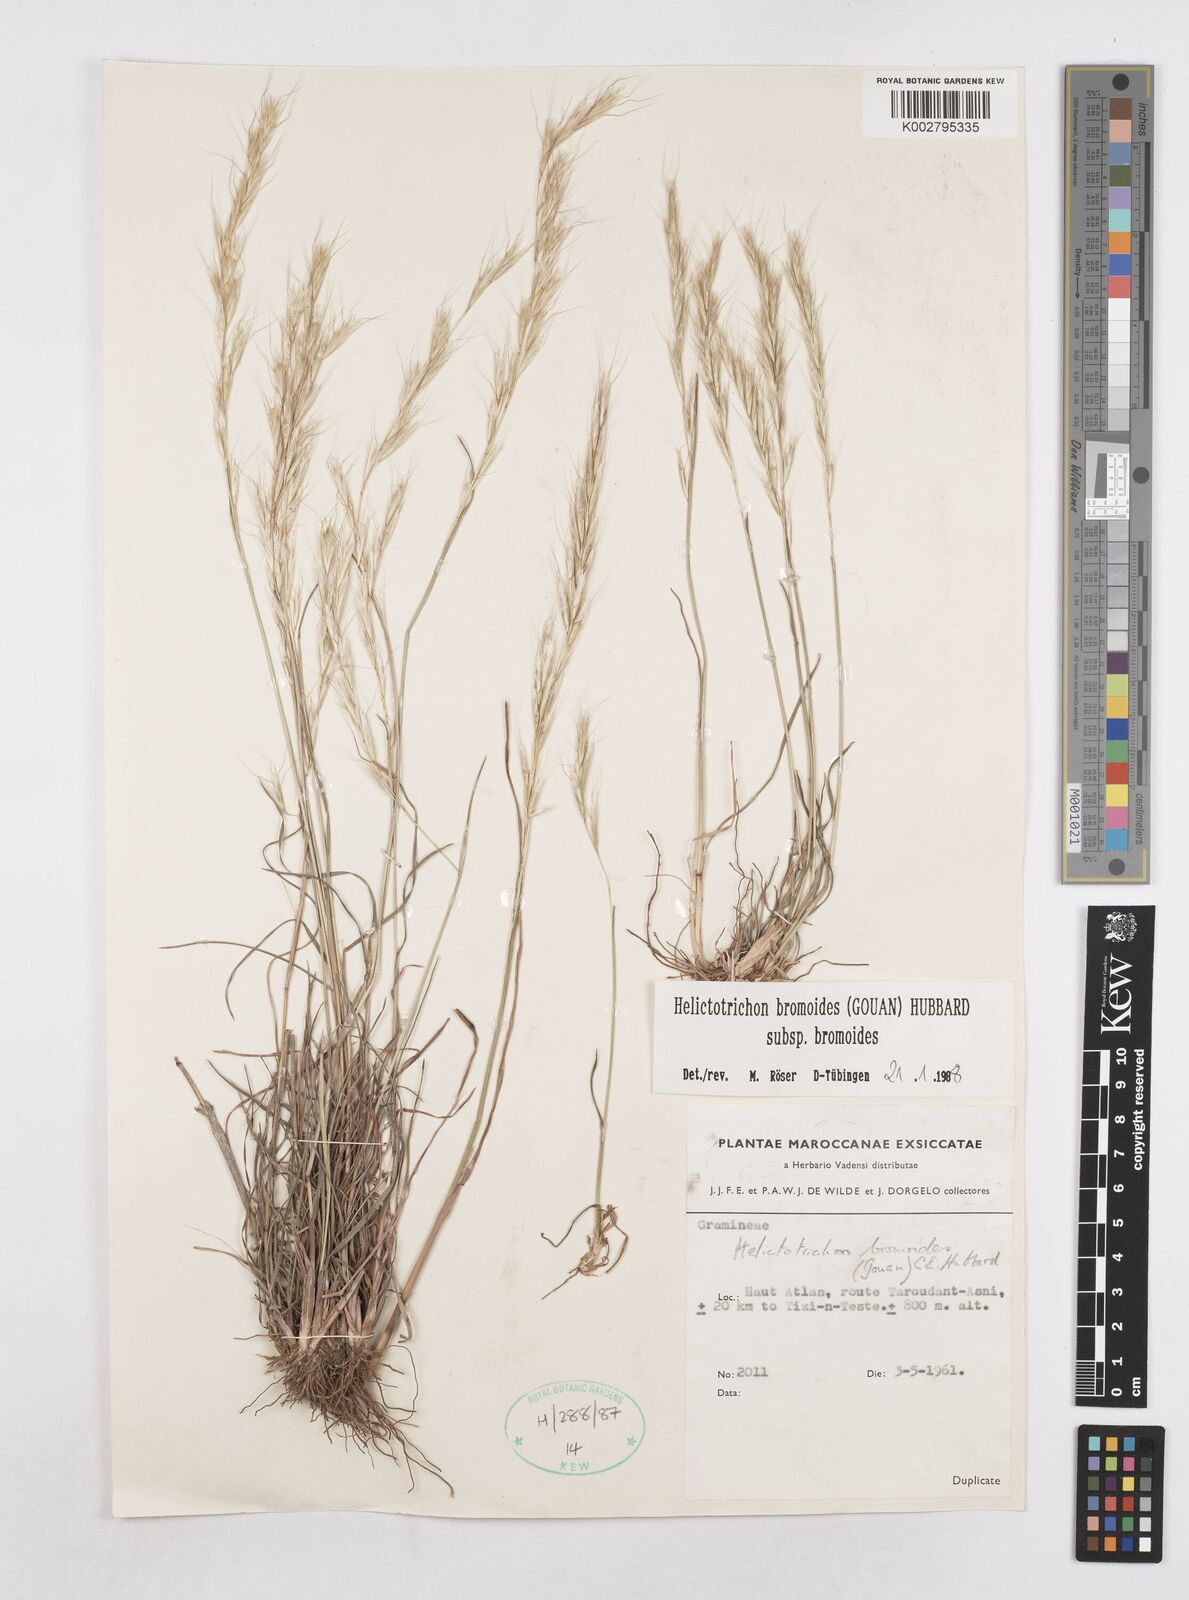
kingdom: Plantae
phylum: Tracheophyta
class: Liliopsida
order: Poales
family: Poaceae
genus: Helictochloa
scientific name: Helictochloa bromoides
